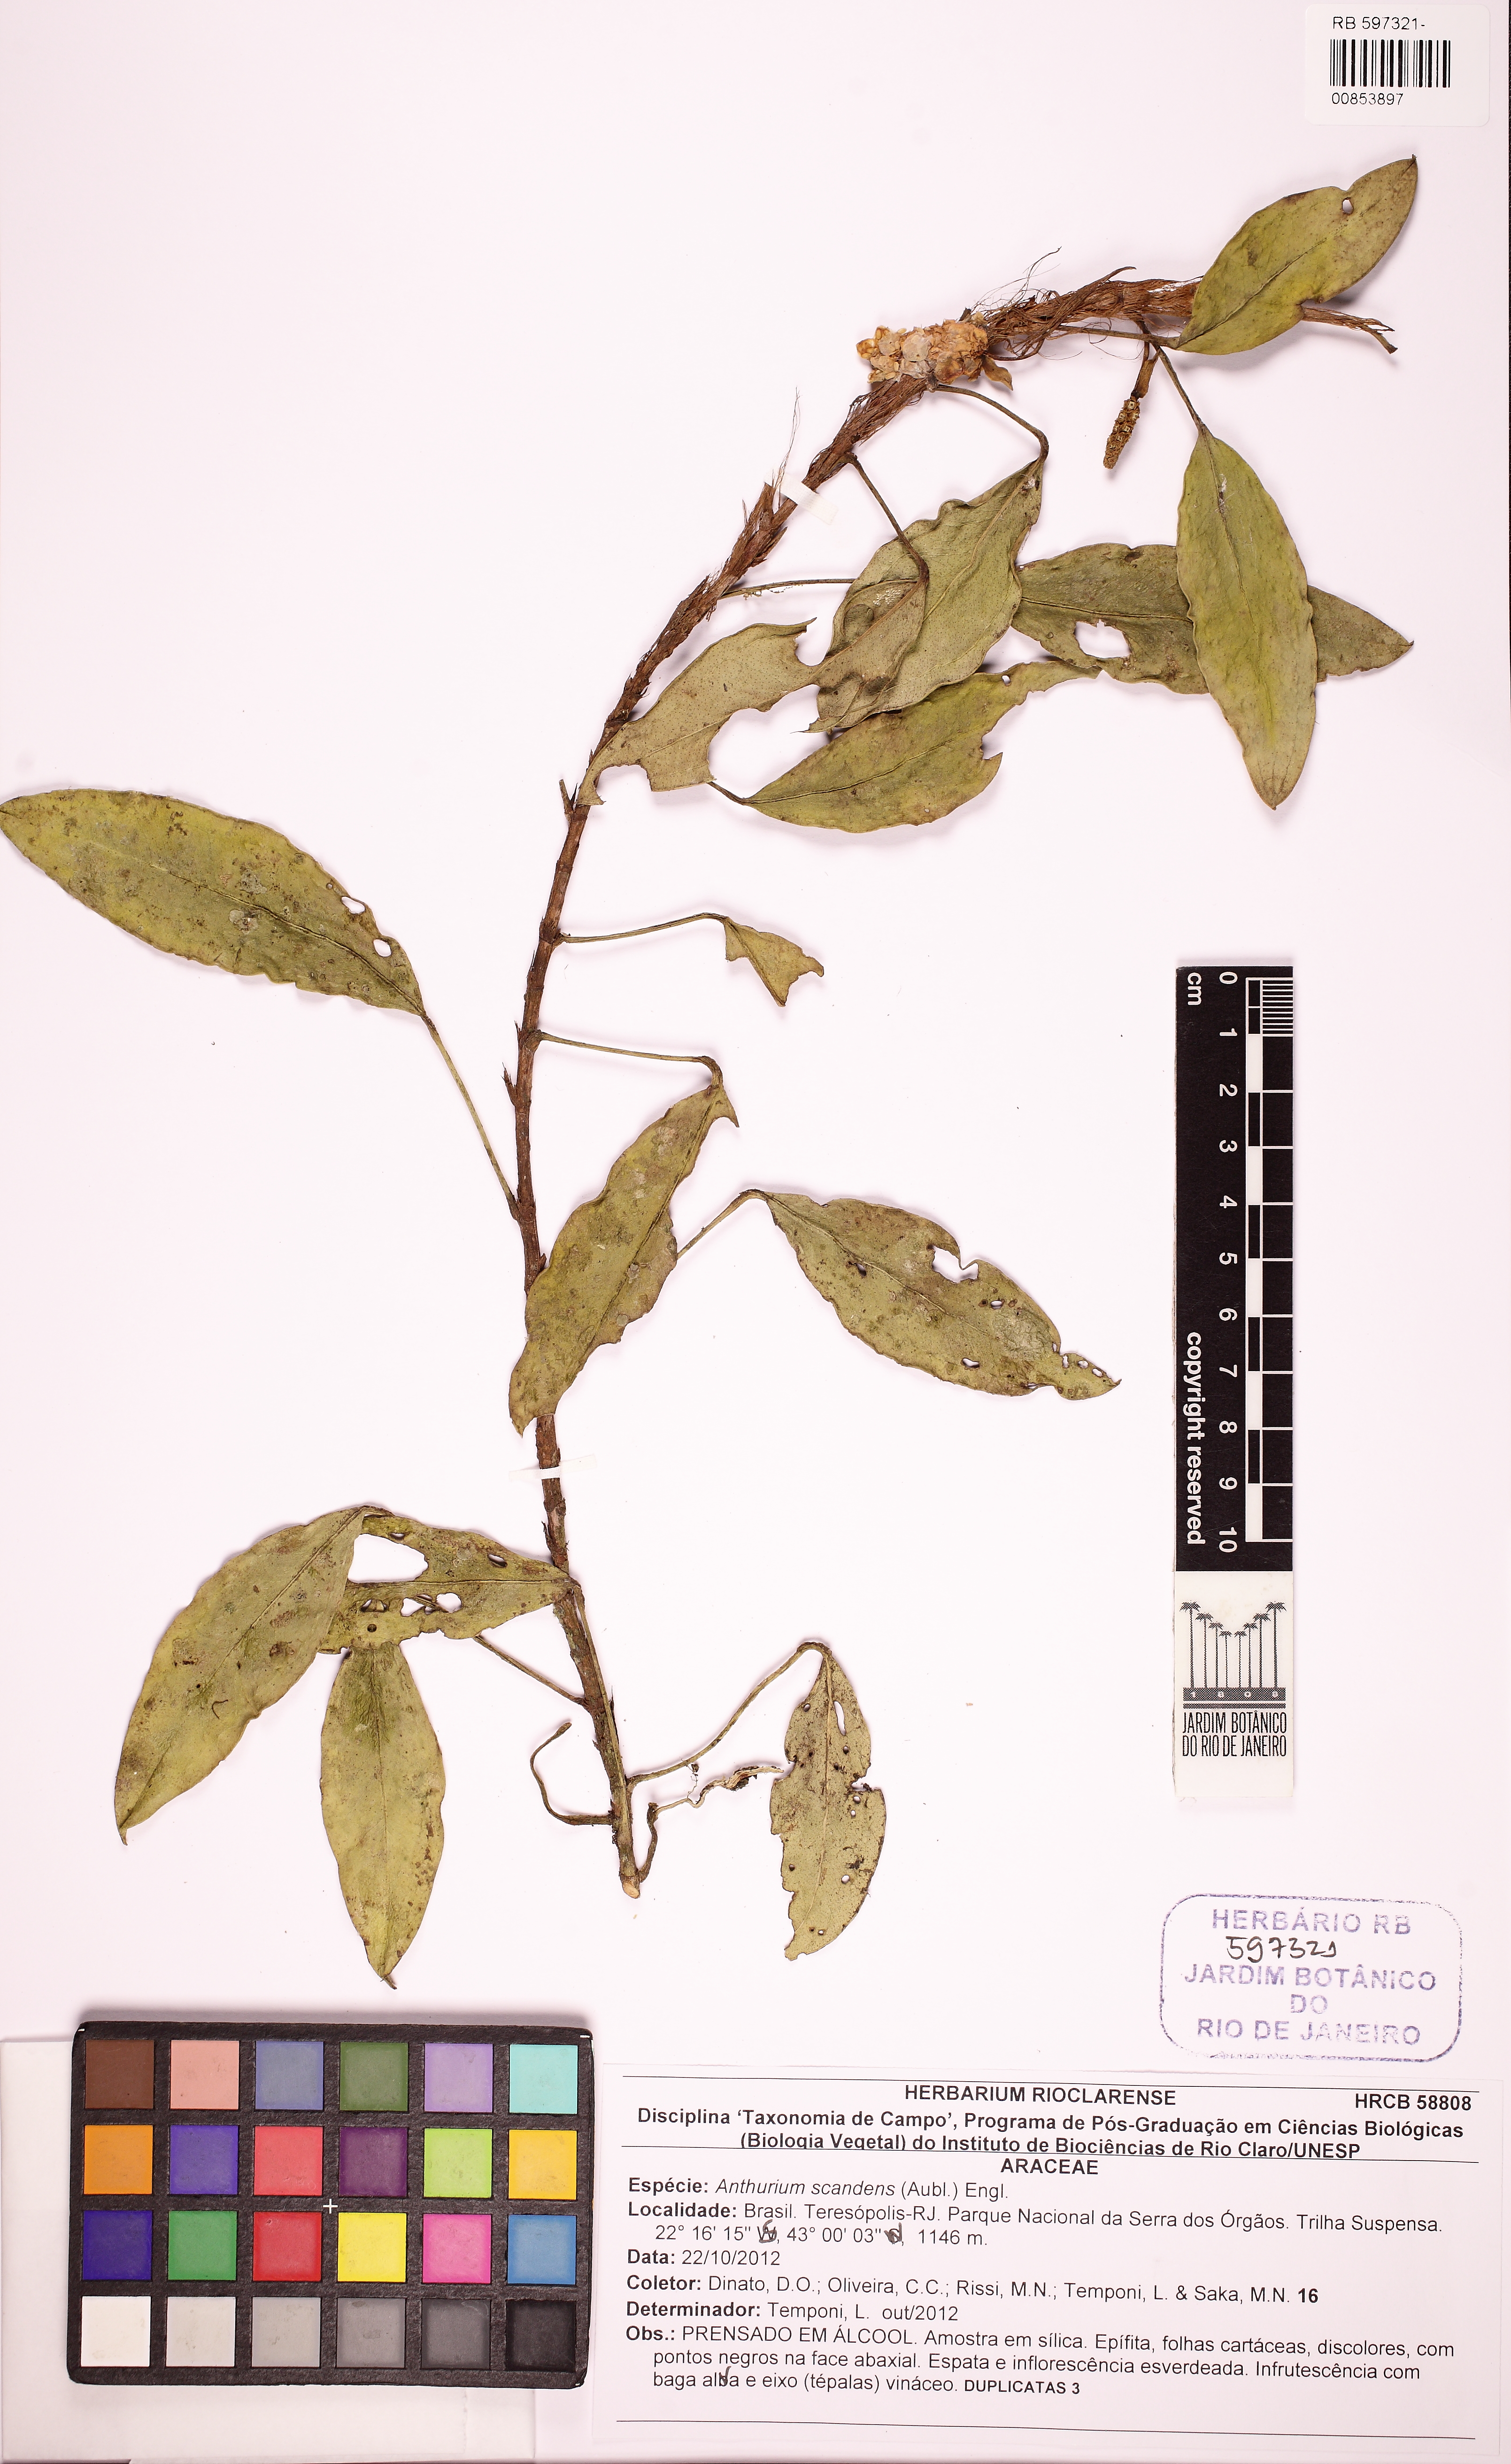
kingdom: Plantae
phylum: Tracheophyta
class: Liliopsida
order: Alismatales
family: Araceae
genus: Anthurium
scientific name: Anthurium scandens
